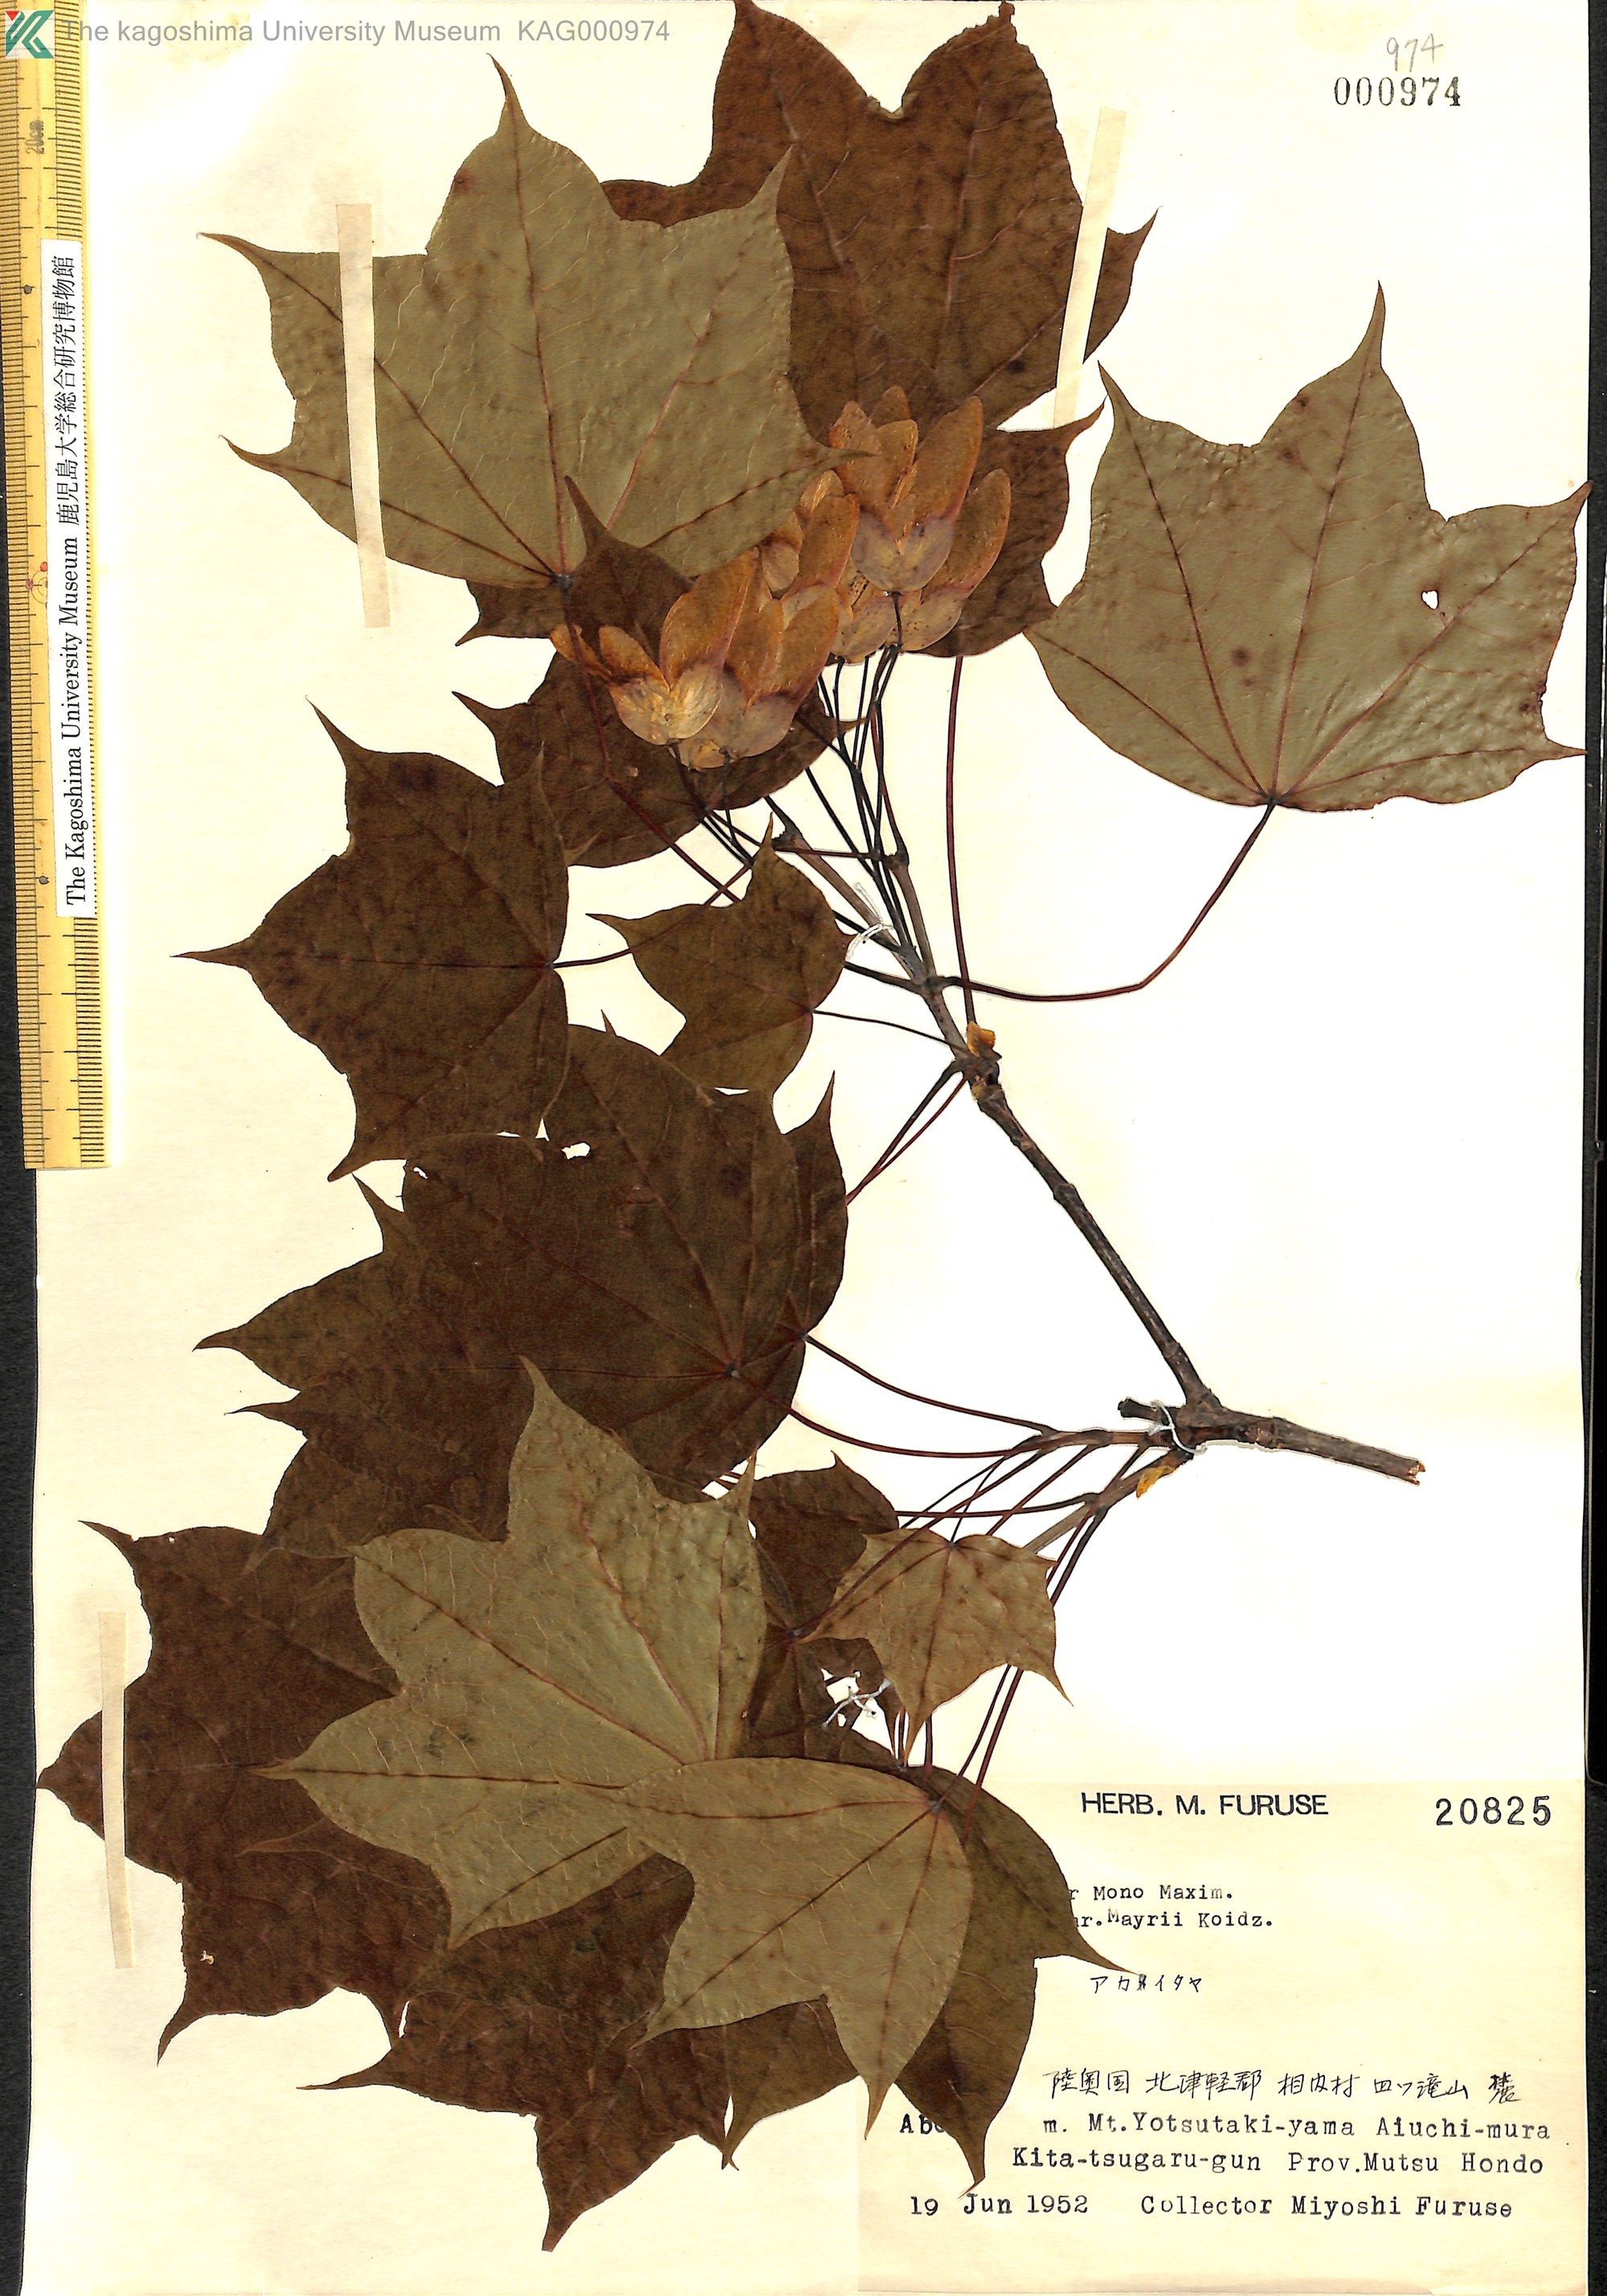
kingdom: Plantae
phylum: Tracheophyta
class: Magnoliopsida
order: Sapindales
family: Sapindaceae
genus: Acer
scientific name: Acer pictum
